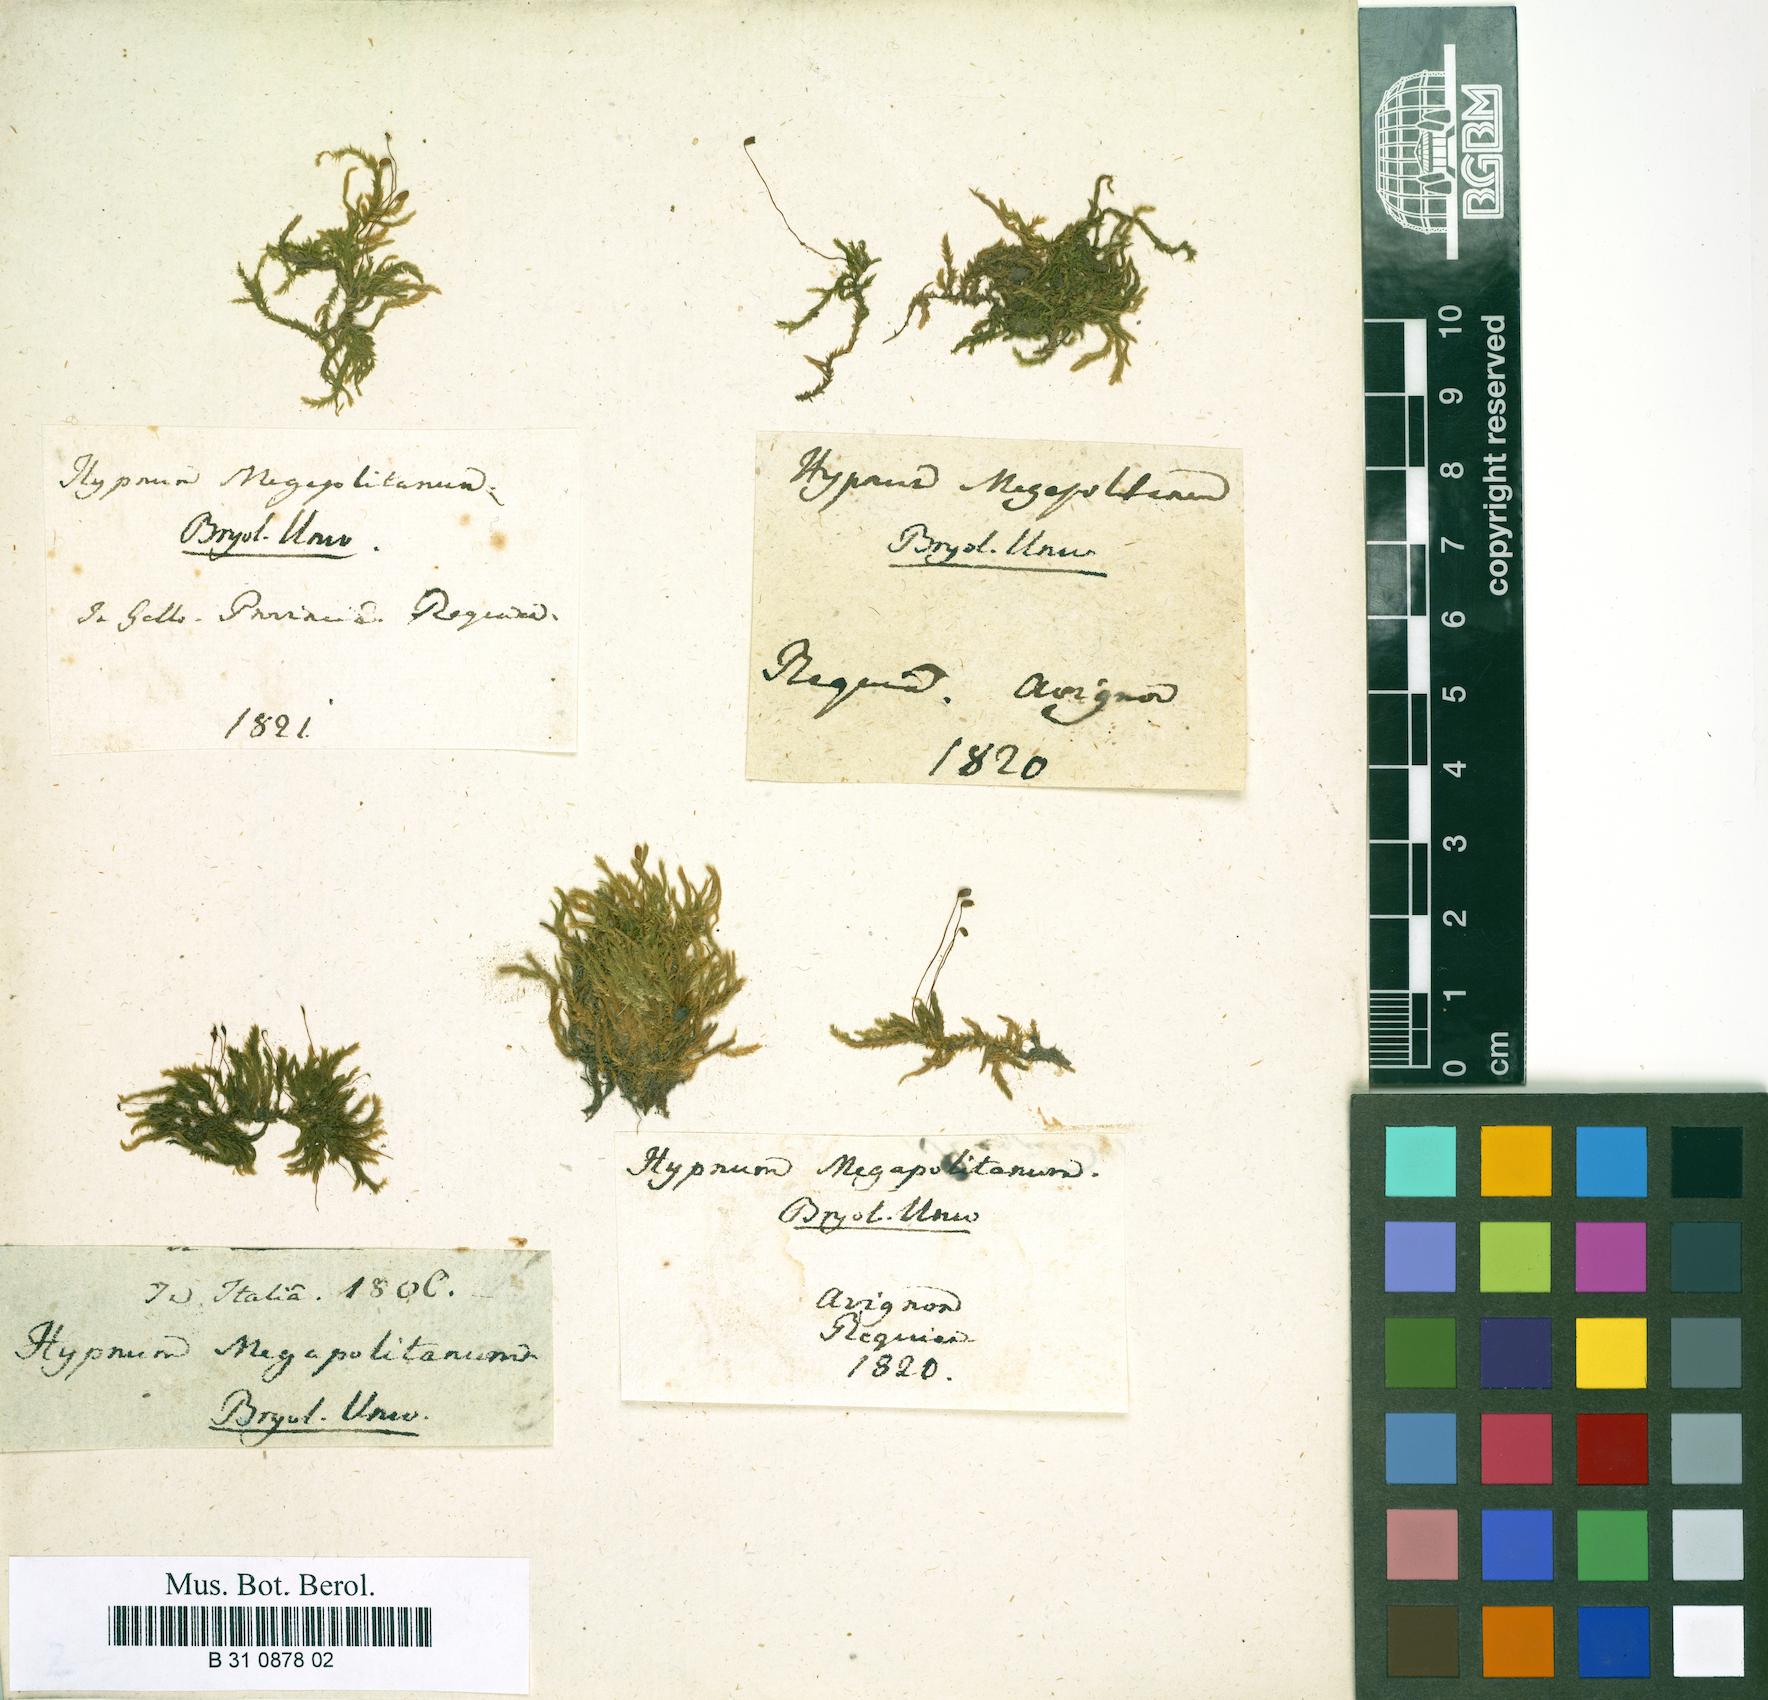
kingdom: Plantae
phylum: Bryophyta
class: Bryopsida
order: Hypnales
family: Brachytheciaceae
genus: Rhynchostegium
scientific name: Rhynchostegium megapolitanum
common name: Megapolitan feather-moss
